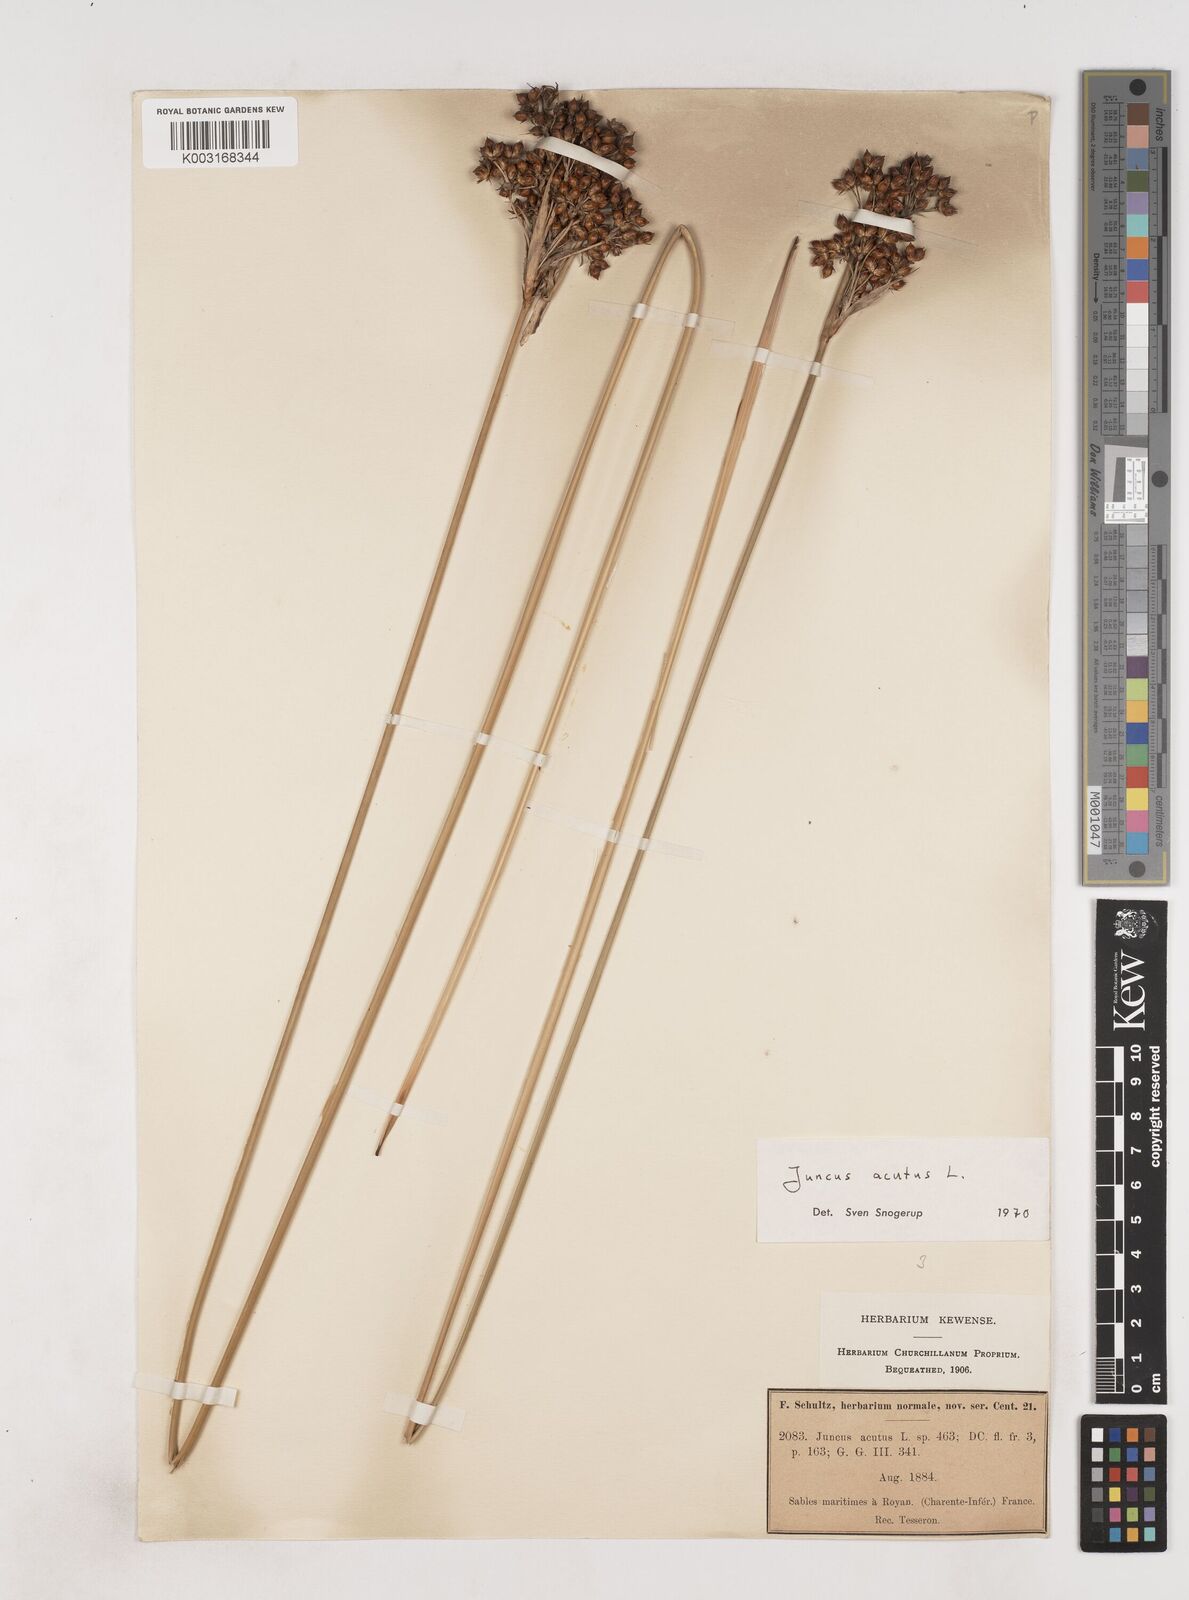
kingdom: Plantae
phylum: Tracheophyta
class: Liliopsida
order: Poales
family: Juncaceae
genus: Juncus
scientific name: Juncus acutus
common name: Sharp rush
